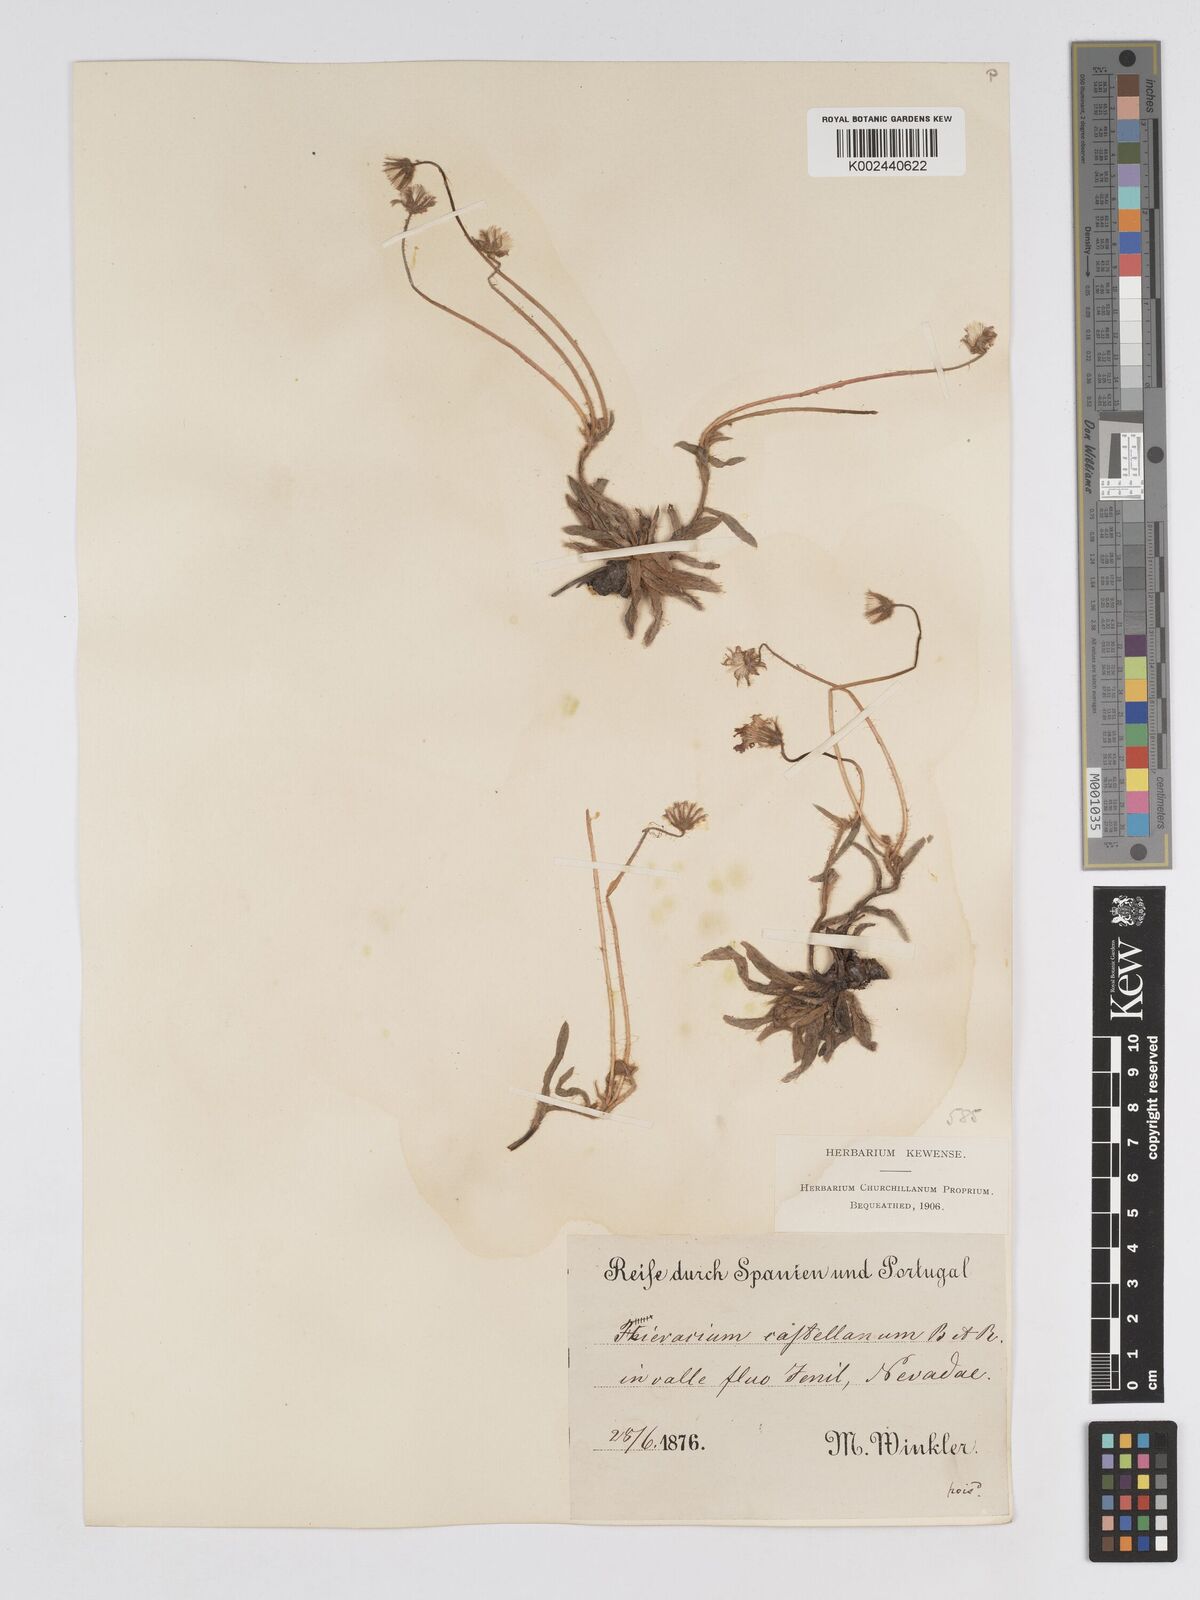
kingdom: Plantae
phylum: Tracheophyta
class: Magnoliopsida
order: Asterales
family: Asteraceae
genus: Pilosella
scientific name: Pilosella castellana
